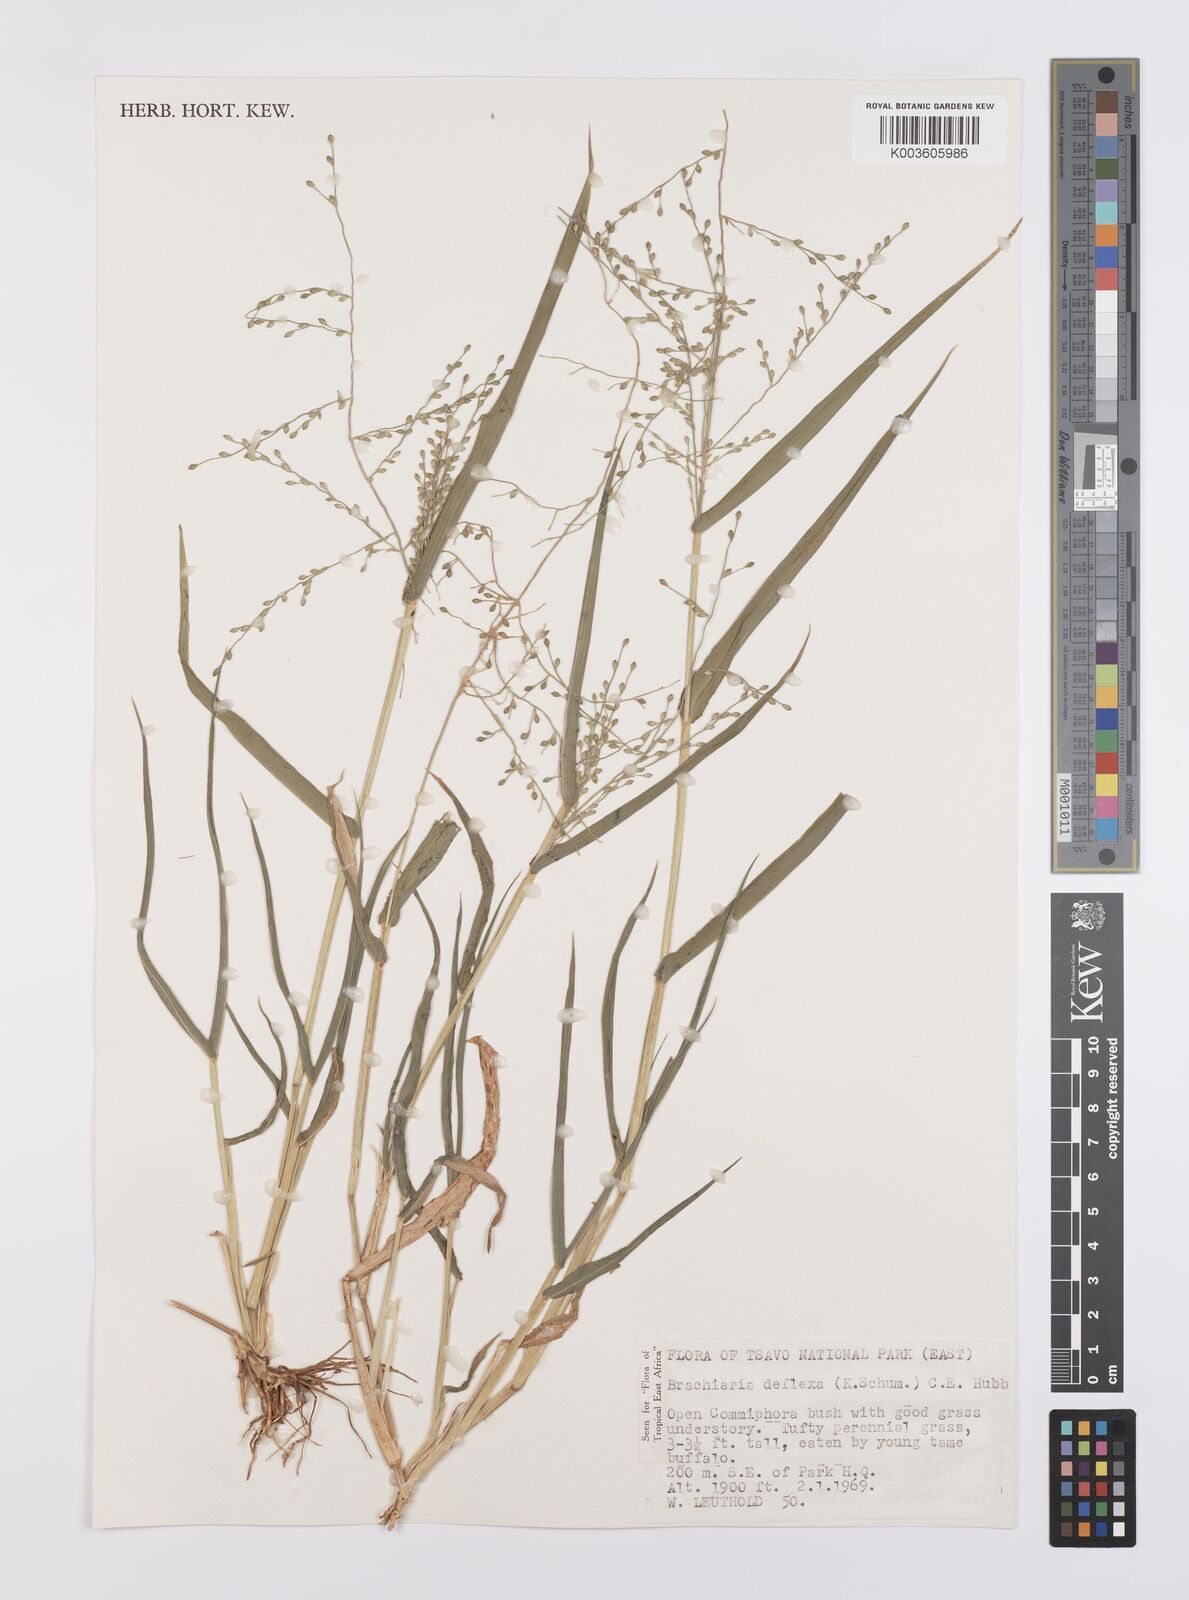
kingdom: Plantae
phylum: Tracheophyta
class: Liliopsida
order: Poales
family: Poaceae
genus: Urochloa
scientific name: Urochloa deflexa
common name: Guinea millet
